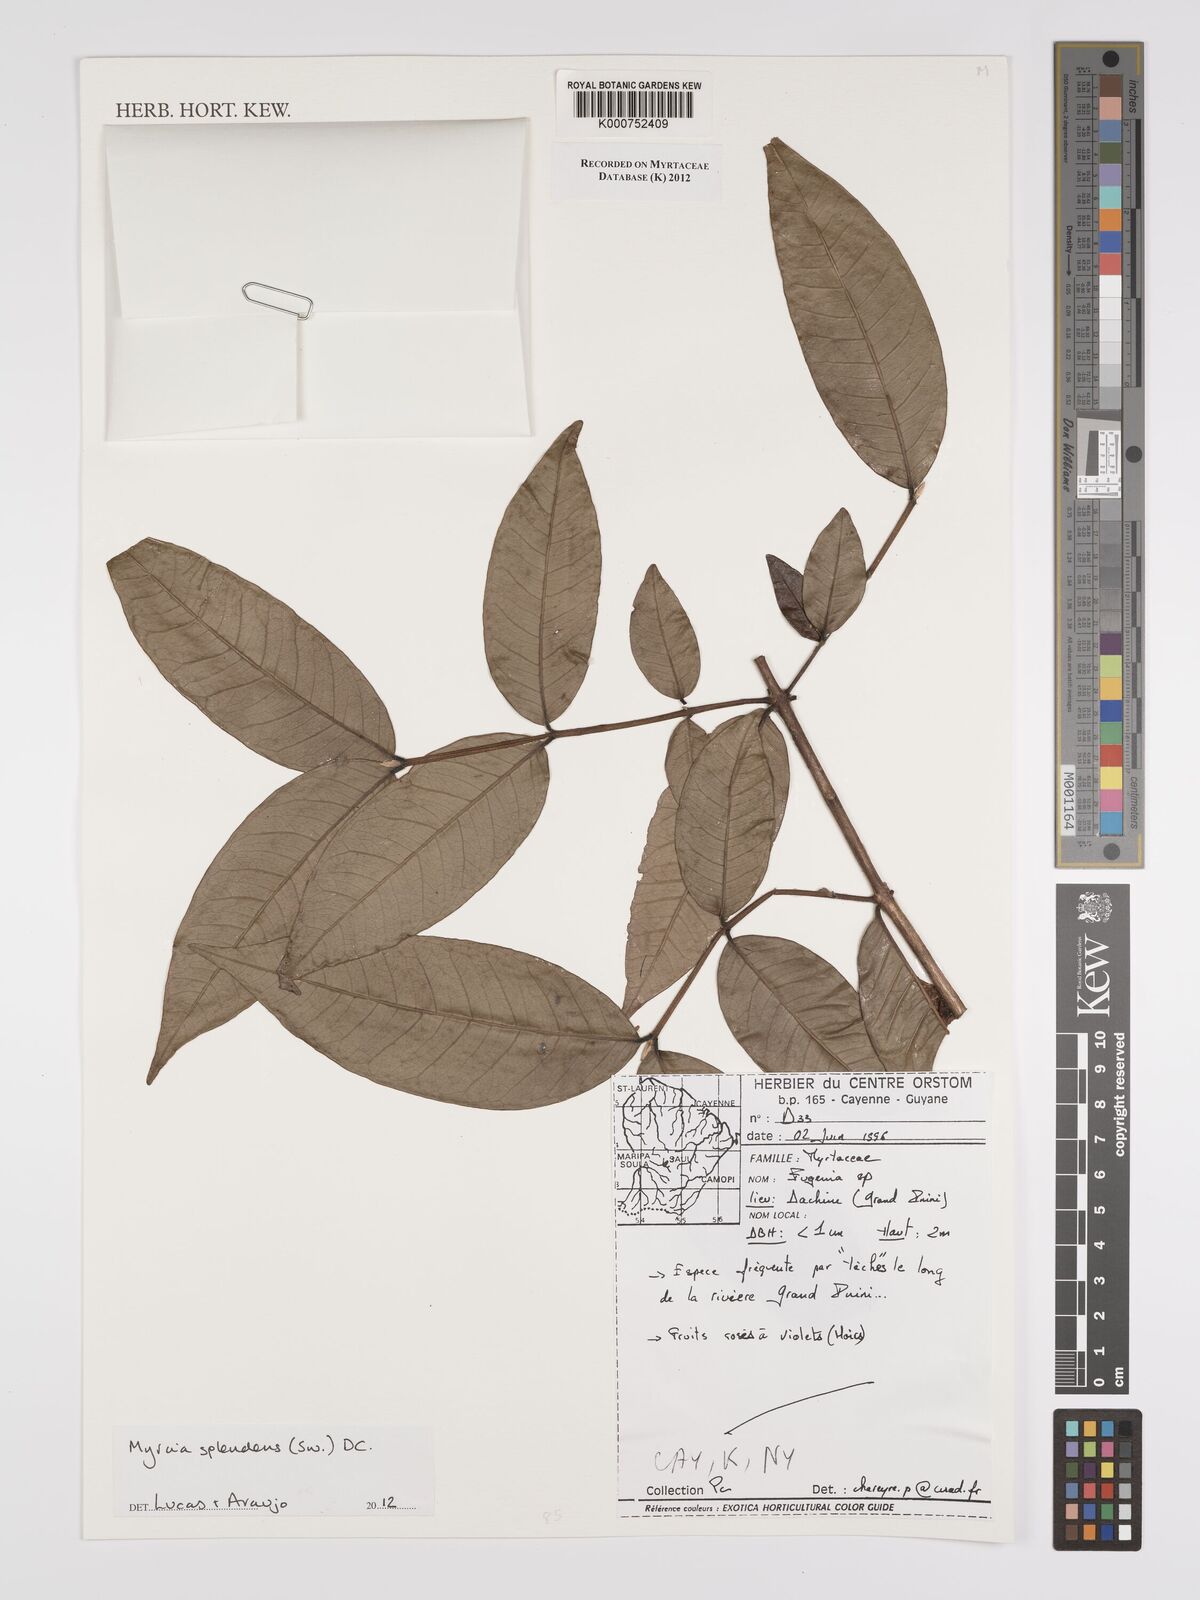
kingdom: Plantae
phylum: Tracheophyta
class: Magnoliopsida
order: Myrtales
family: Myrtaceae
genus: Myrcia
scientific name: Myrcia splendens
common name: Surinam cherry
